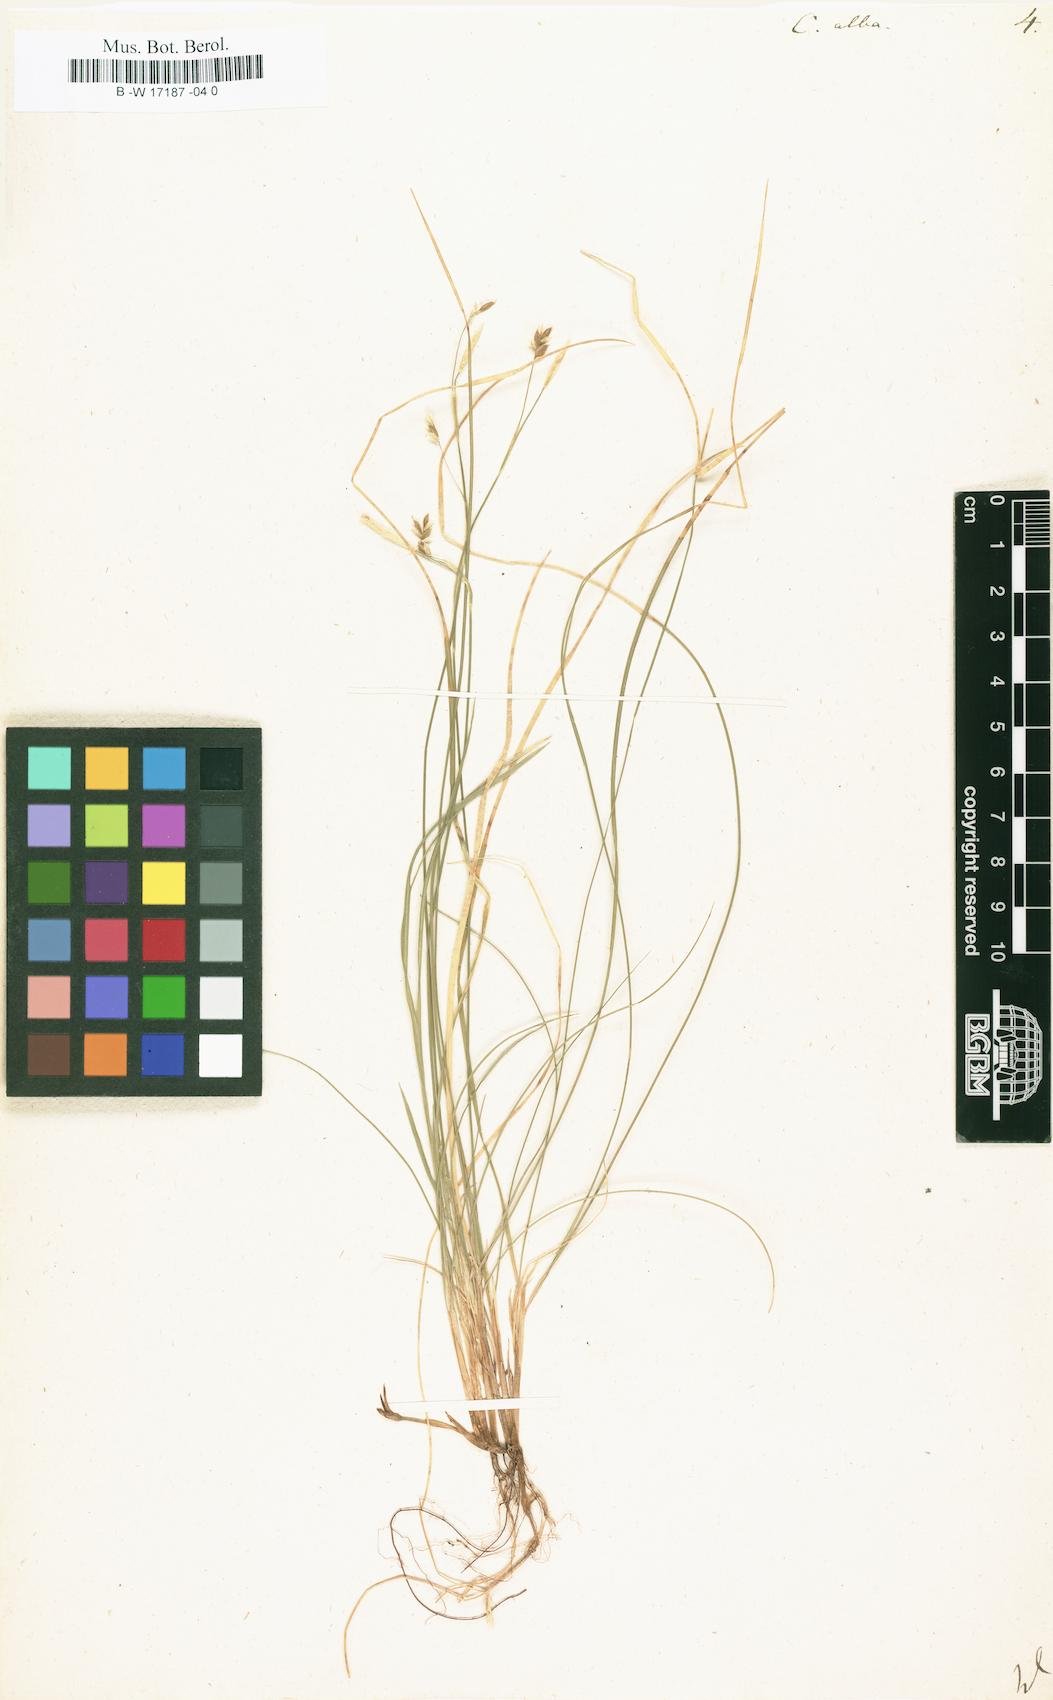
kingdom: Plantae
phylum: Tracheophyta
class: Liliopsida
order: Poales
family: Cyperaceae
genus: Carex
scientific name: Carex alba
